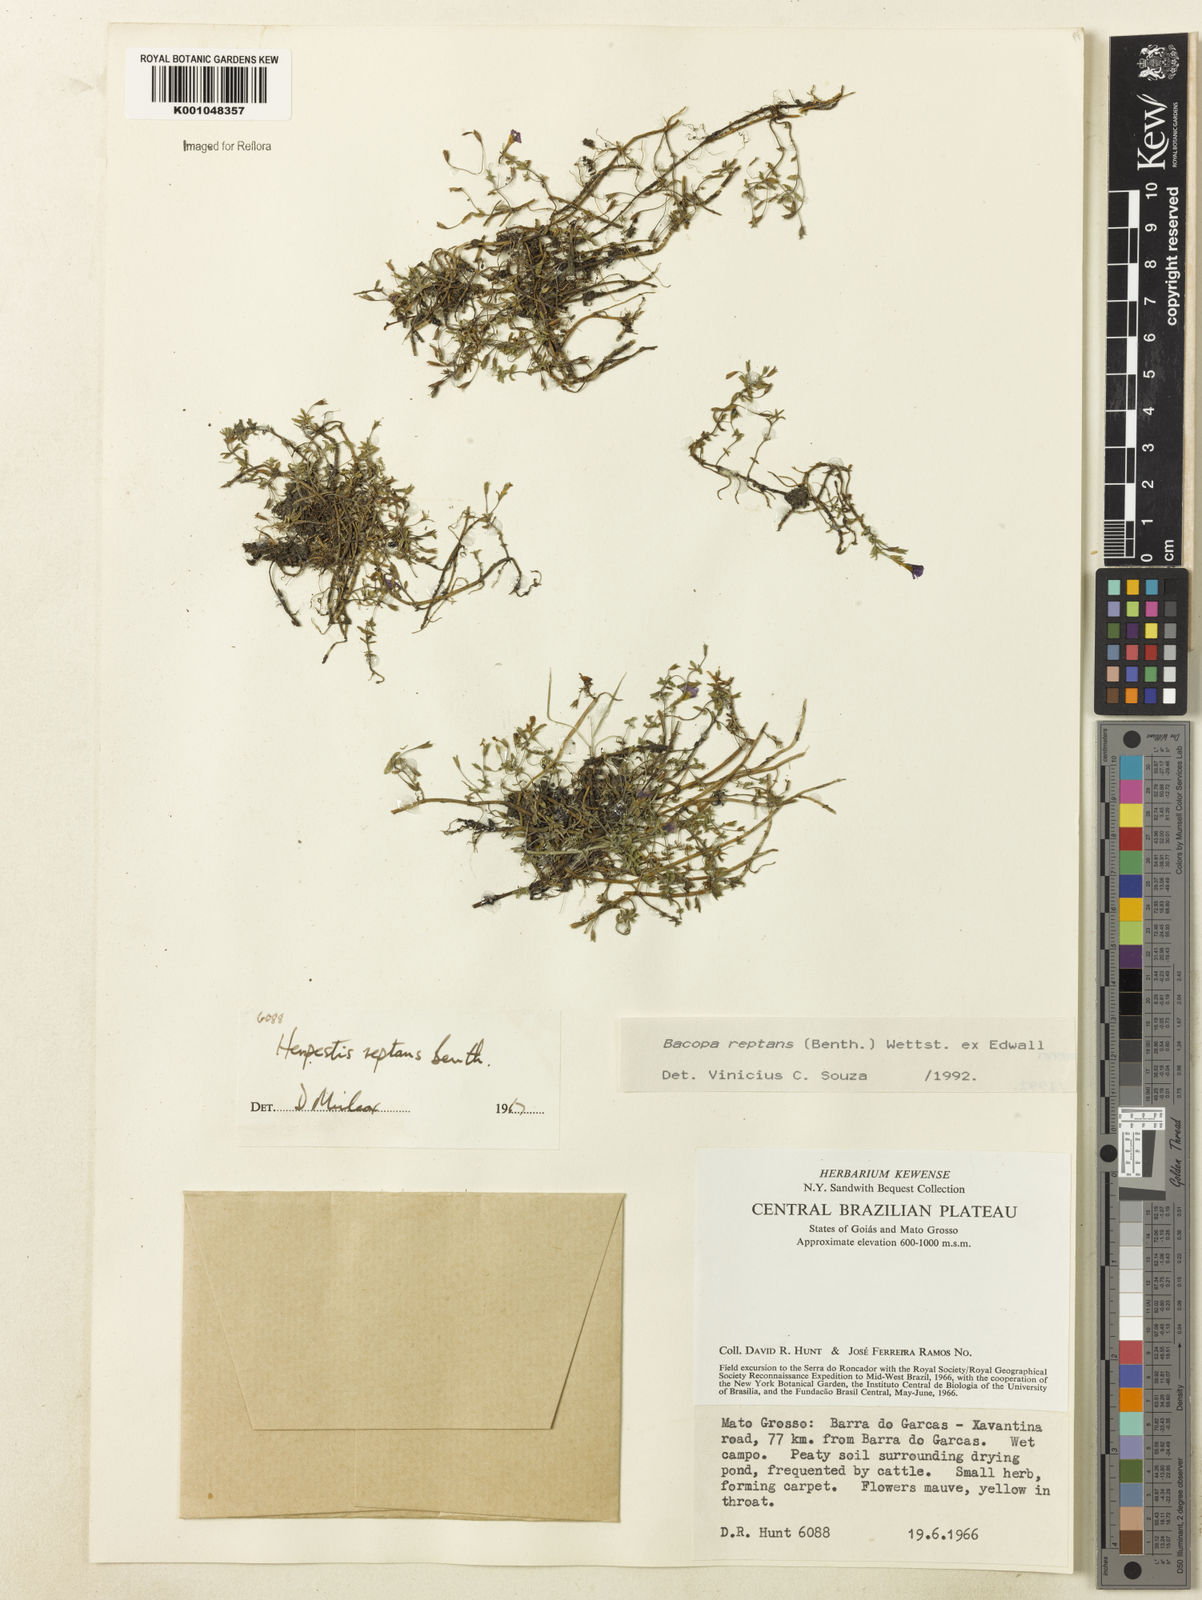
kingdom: Plantae
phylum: Tracheophyta
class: Magnoliopsida
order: Lamiales
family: Plantaginaceae
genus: Bacopa
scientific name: Bacopa
